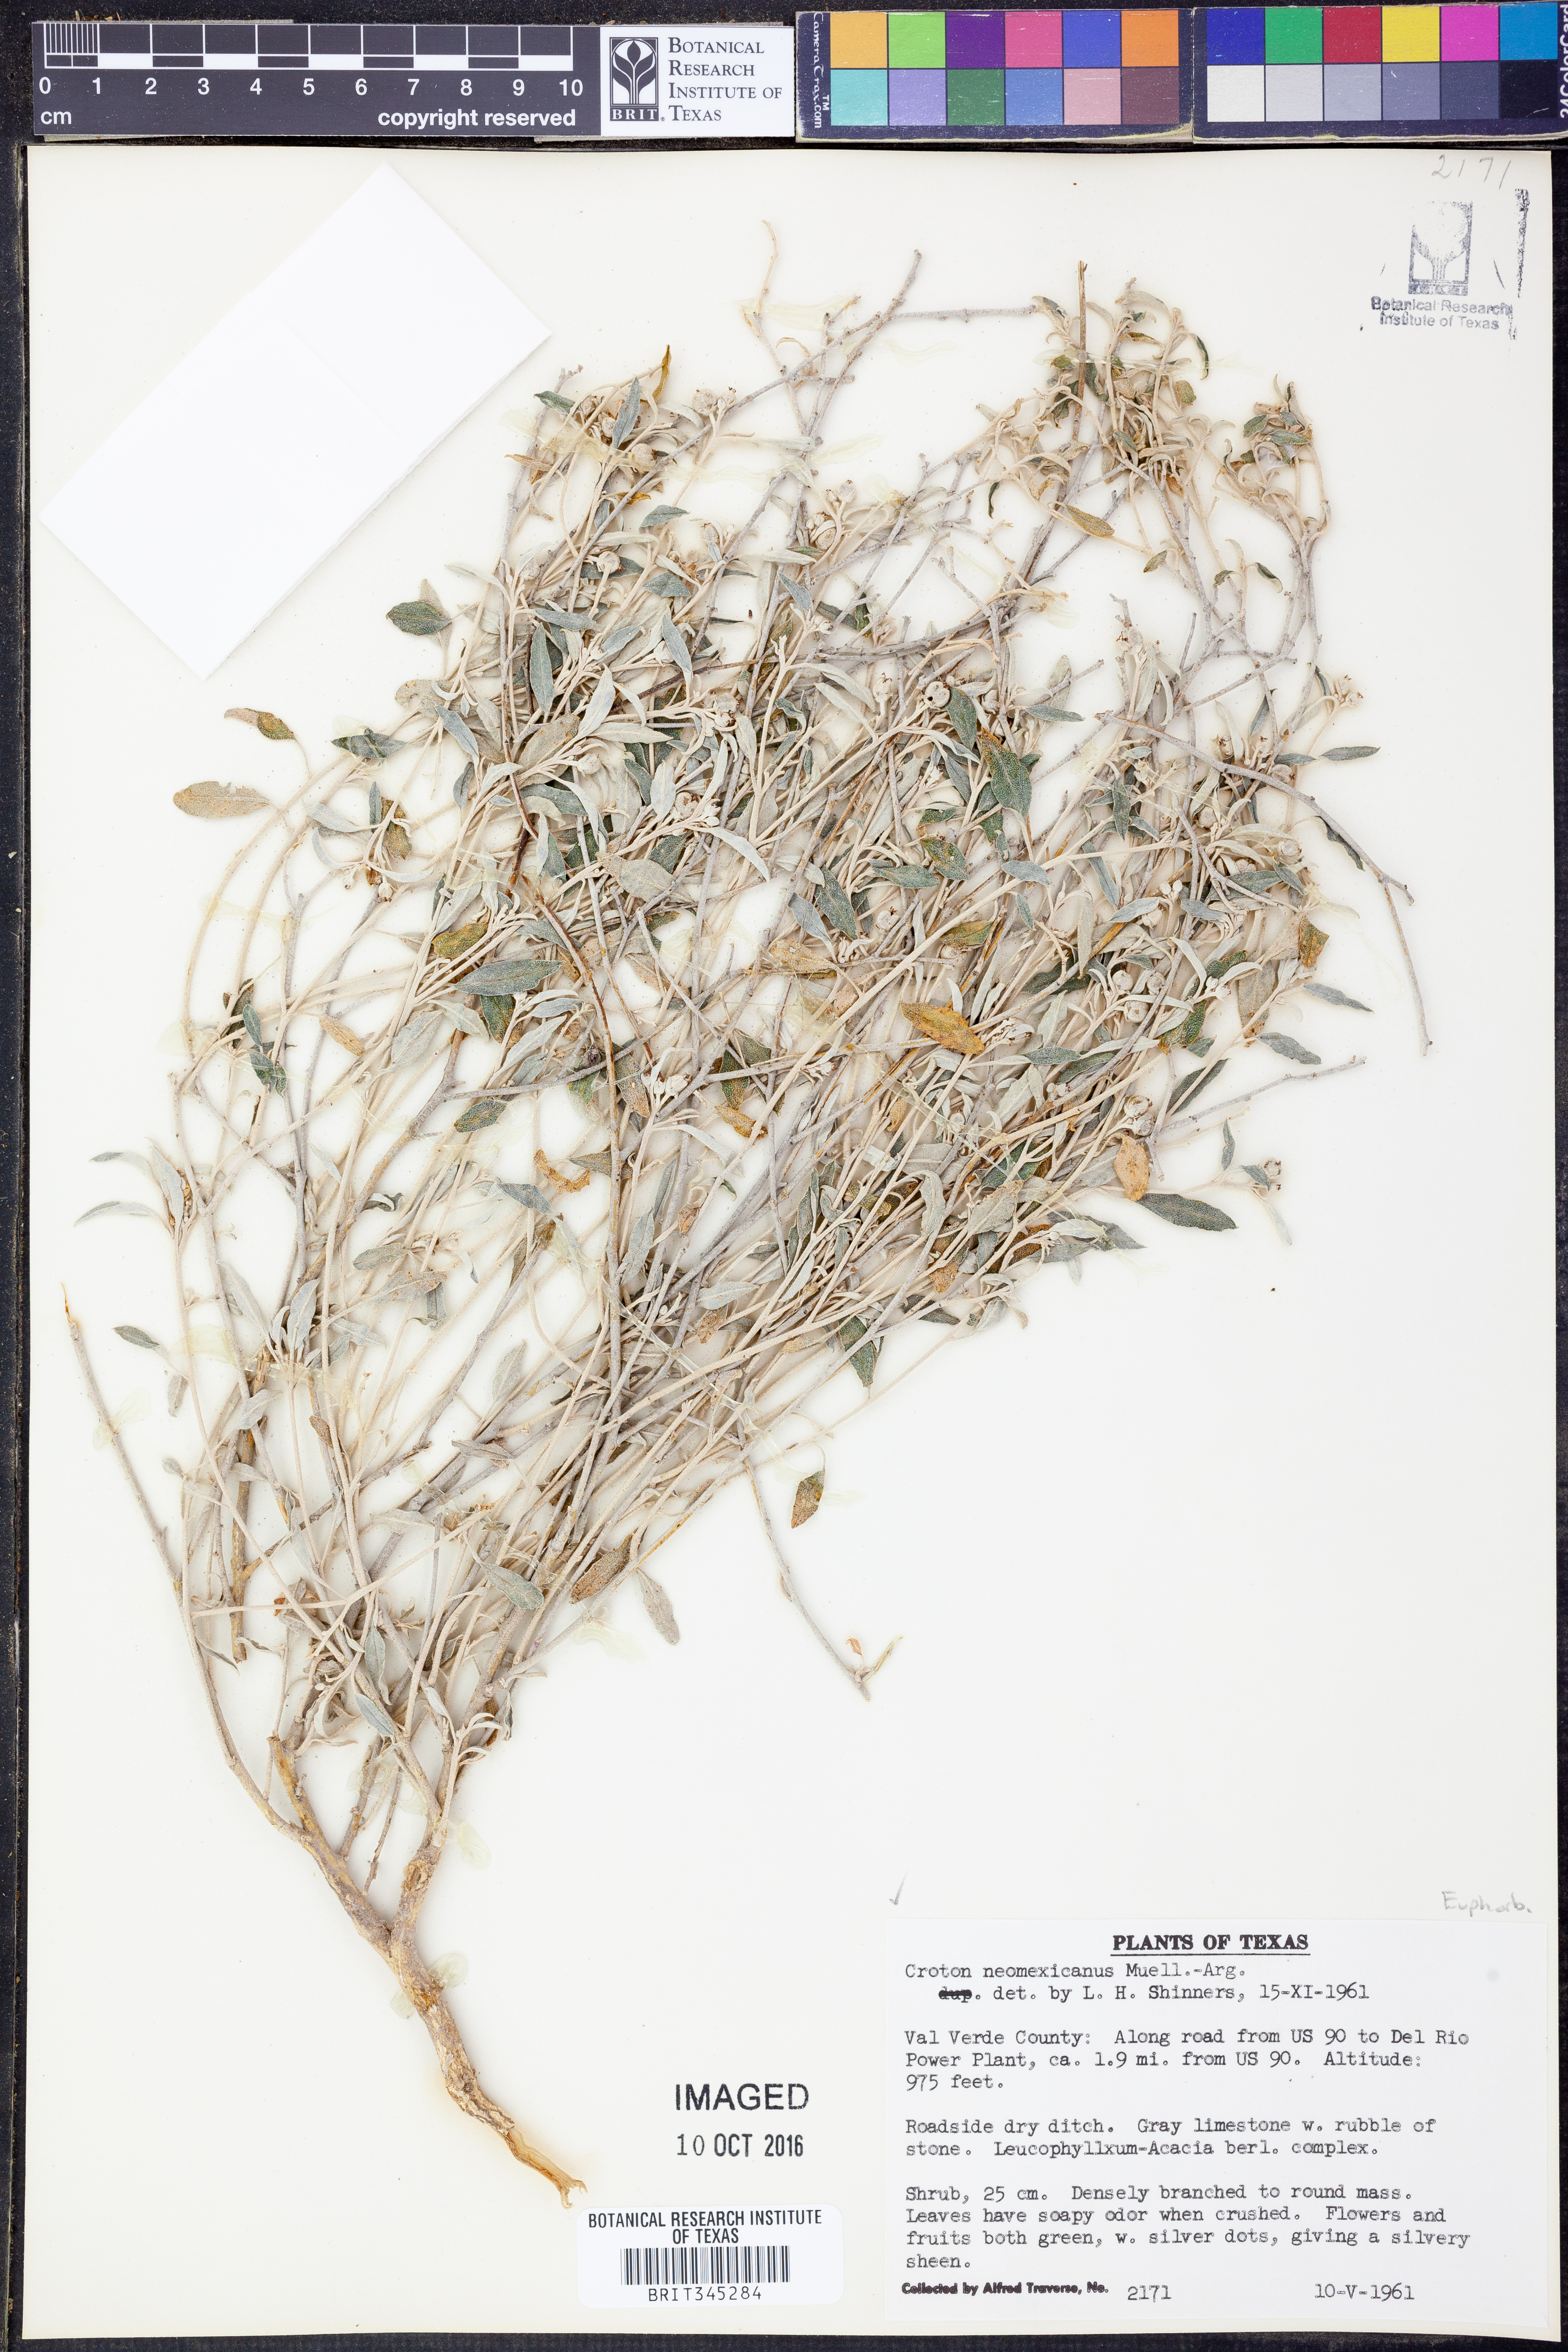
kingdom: Plantae
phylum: Tracheophyta
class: Magnoliopsida
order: Malpighiales
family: Euphorbiaceae
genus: Croton
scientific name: Croton dioicus
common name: Grassland croton
